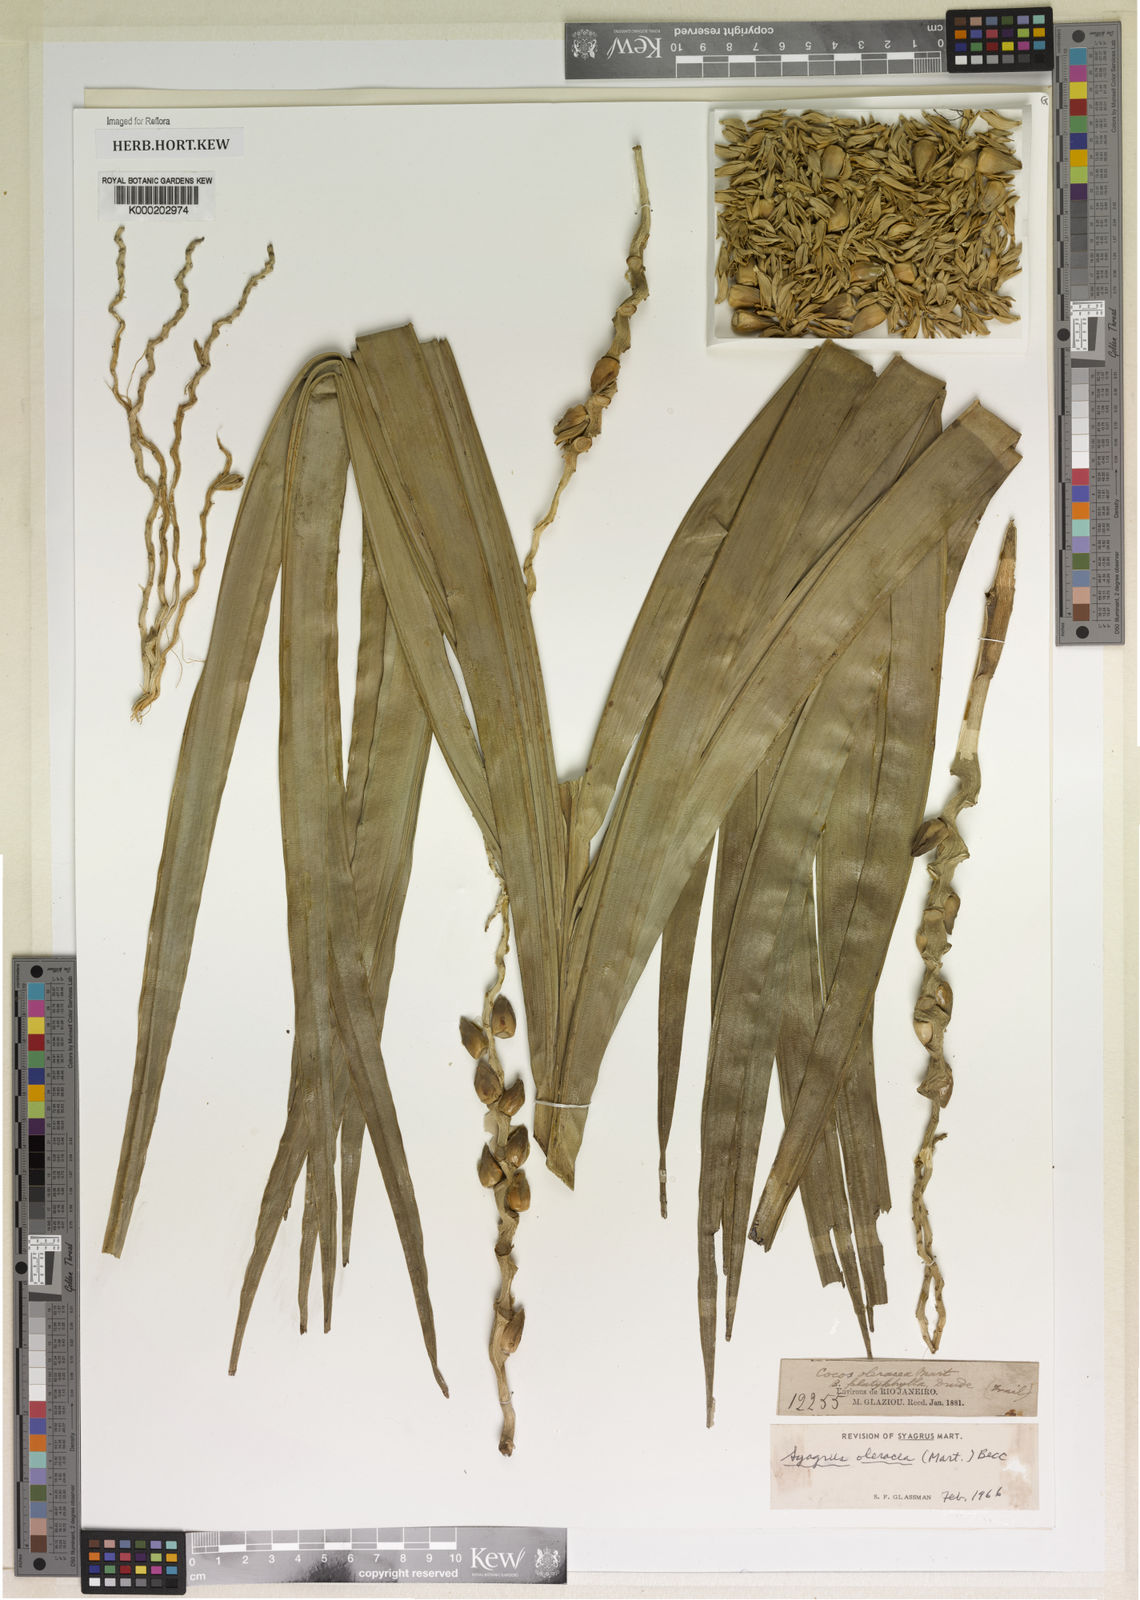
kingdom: Plantae
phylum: Tracheophyta
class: Liliopsida
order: Arecales
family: Arecaceae
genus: Syagrus
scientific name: Syagrus oleracea
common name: Catole palm
